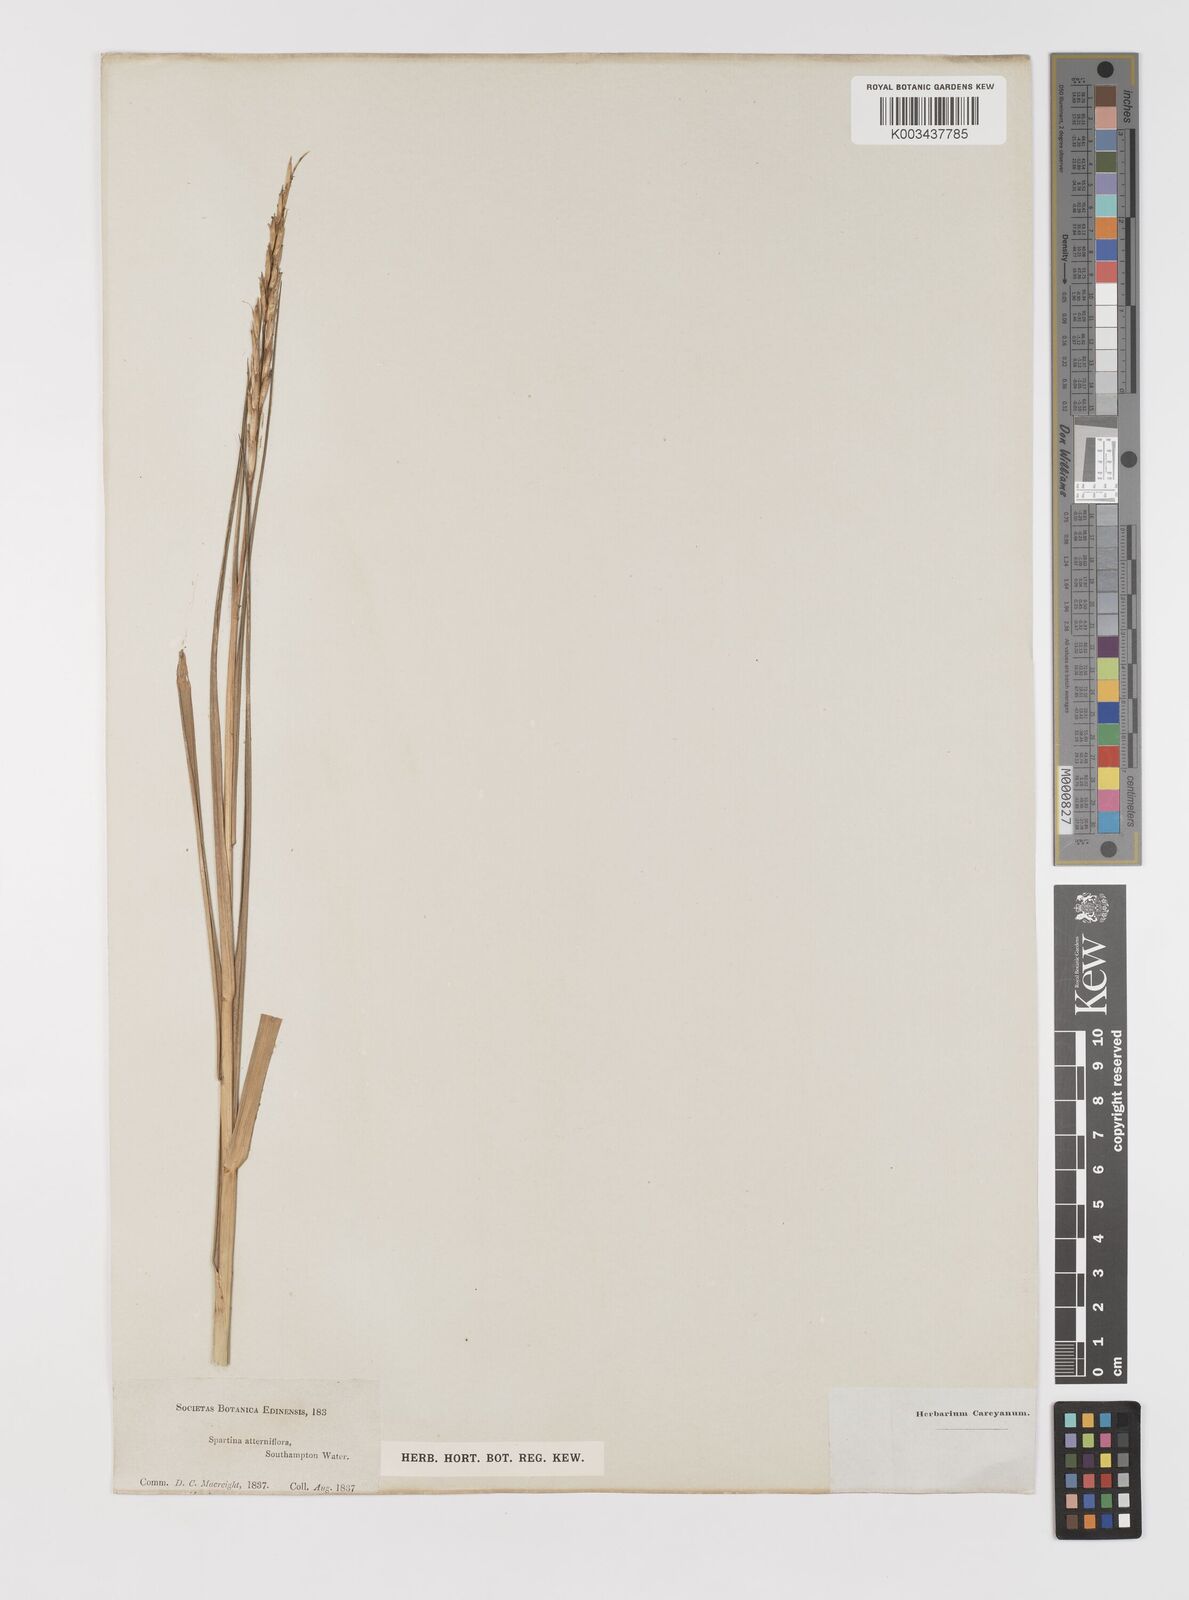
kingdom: Plantae
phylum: Tracheophyta
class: Liliopsida
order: Poales
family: Poaceae
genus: Sporobolus
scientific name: Sporobolus alterniflorus
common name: Atlantic cordgrass
